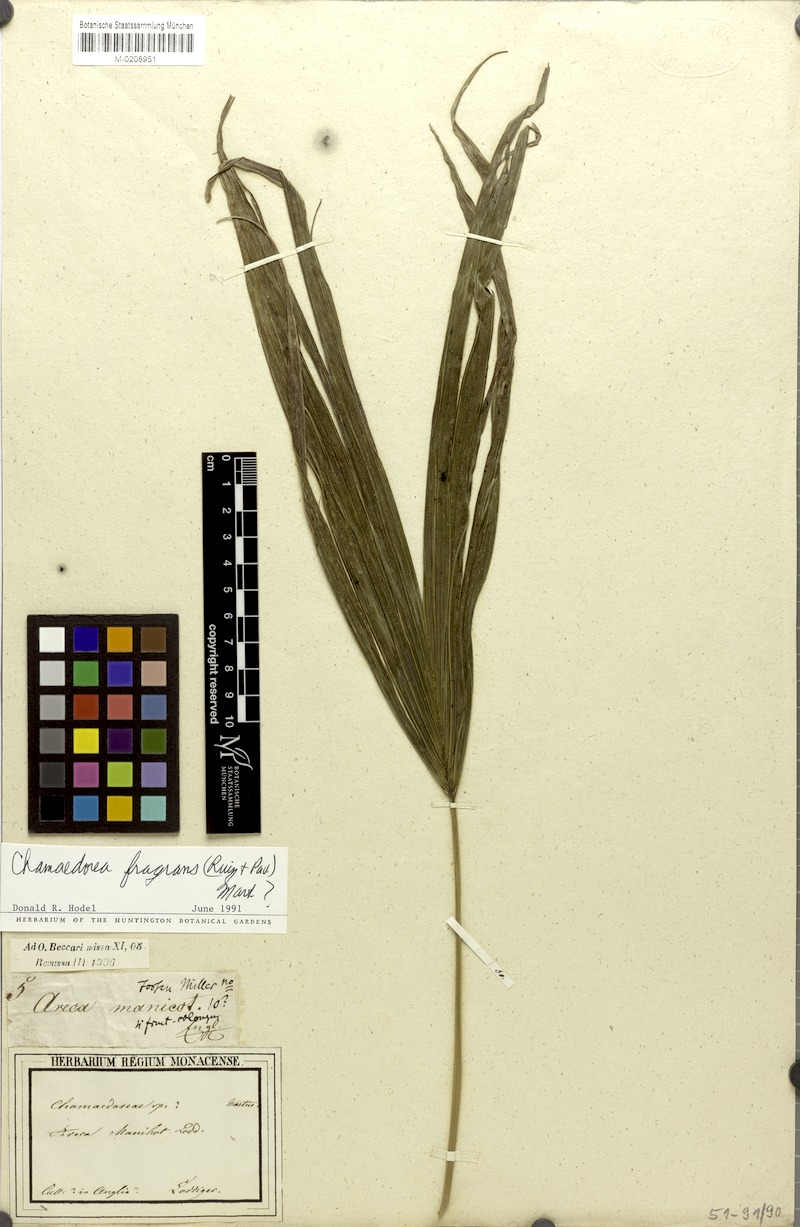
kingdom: Plantae
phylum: Tracheophyta
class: Liliopsida
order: Arecales
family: Arecaceae
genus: Chamaedorea
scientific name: Chamaedorea fragrans
